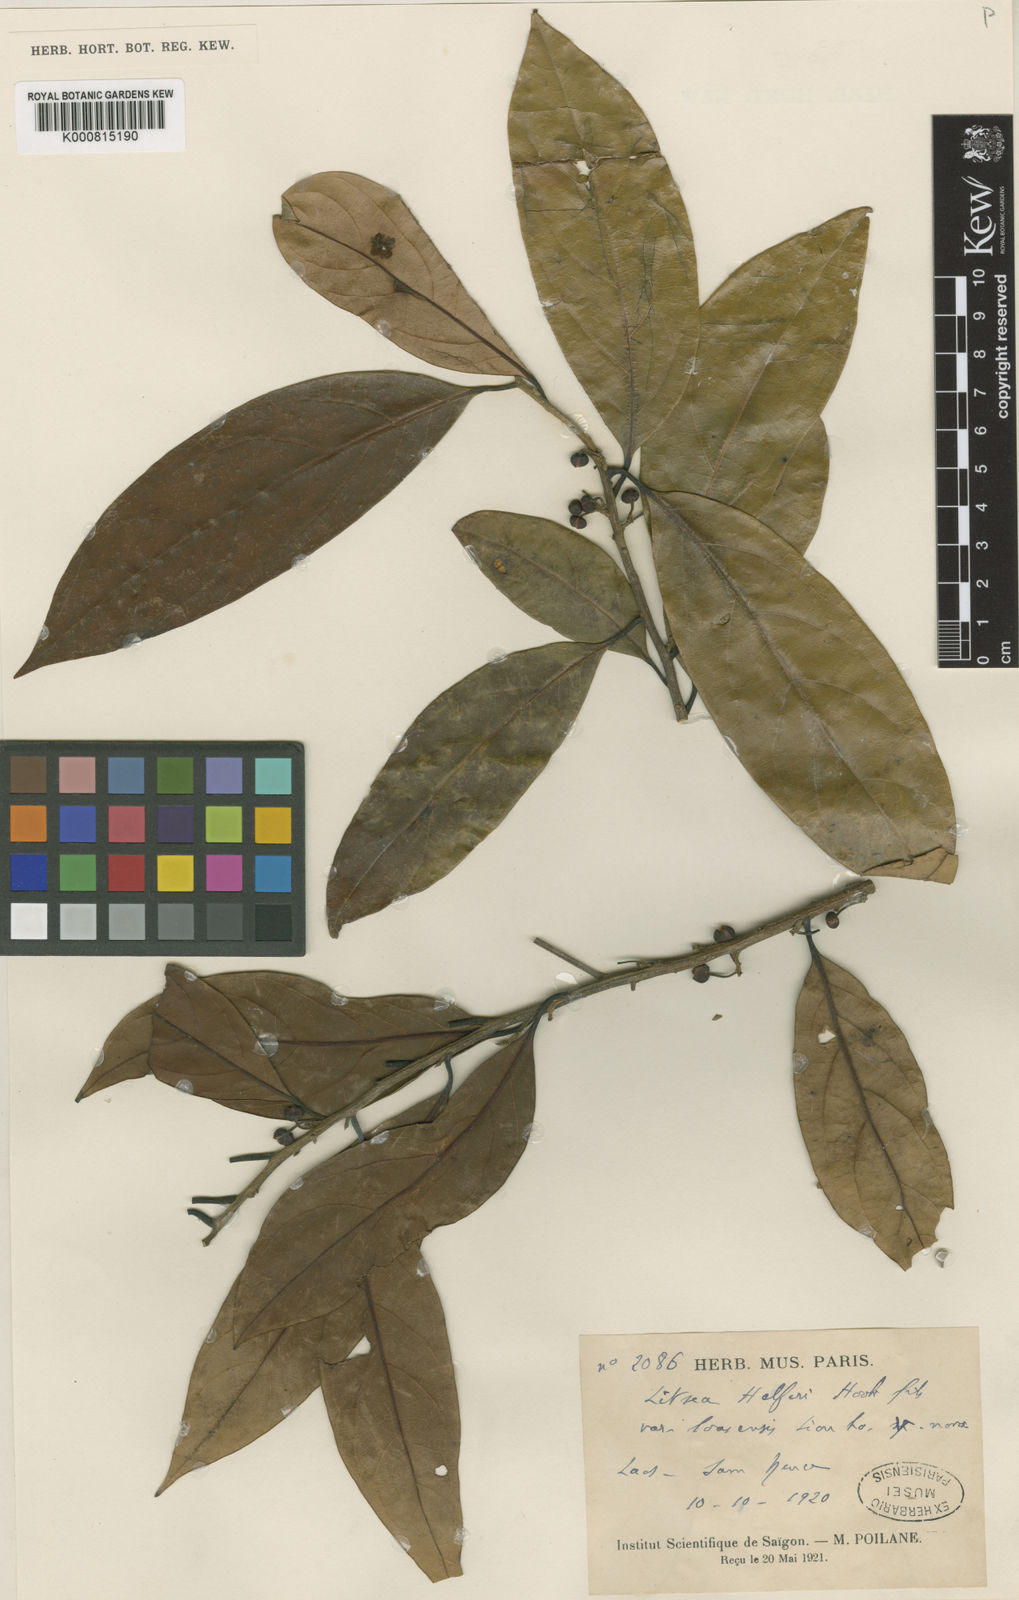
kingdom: Plantae
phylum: Tracheophyta
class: Magnoliopsida
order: Laurales
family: Lauraceae
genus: Litsea
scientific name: Litsea helferi
